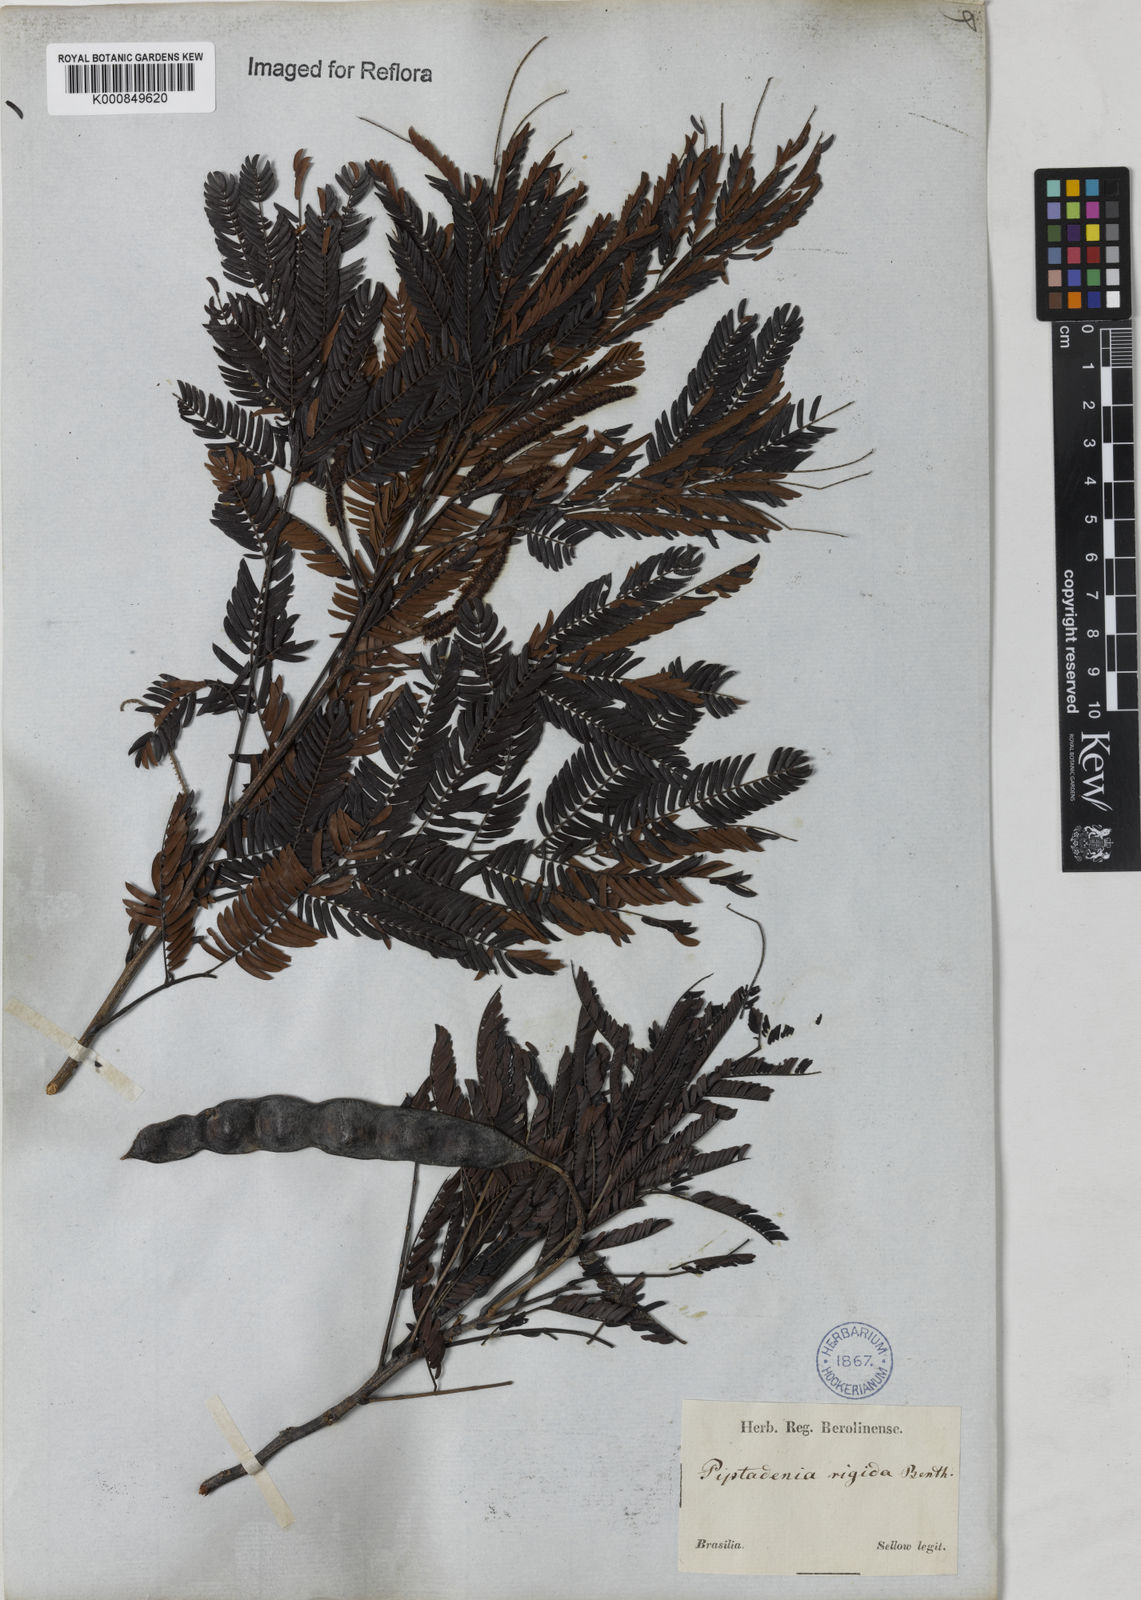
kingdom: Plantae
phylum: Tracheophyta
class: Magnoliopsida
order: Fabales
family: Fabaceae
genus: Parapiptadenia
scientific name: Parapiptadenia rigida
